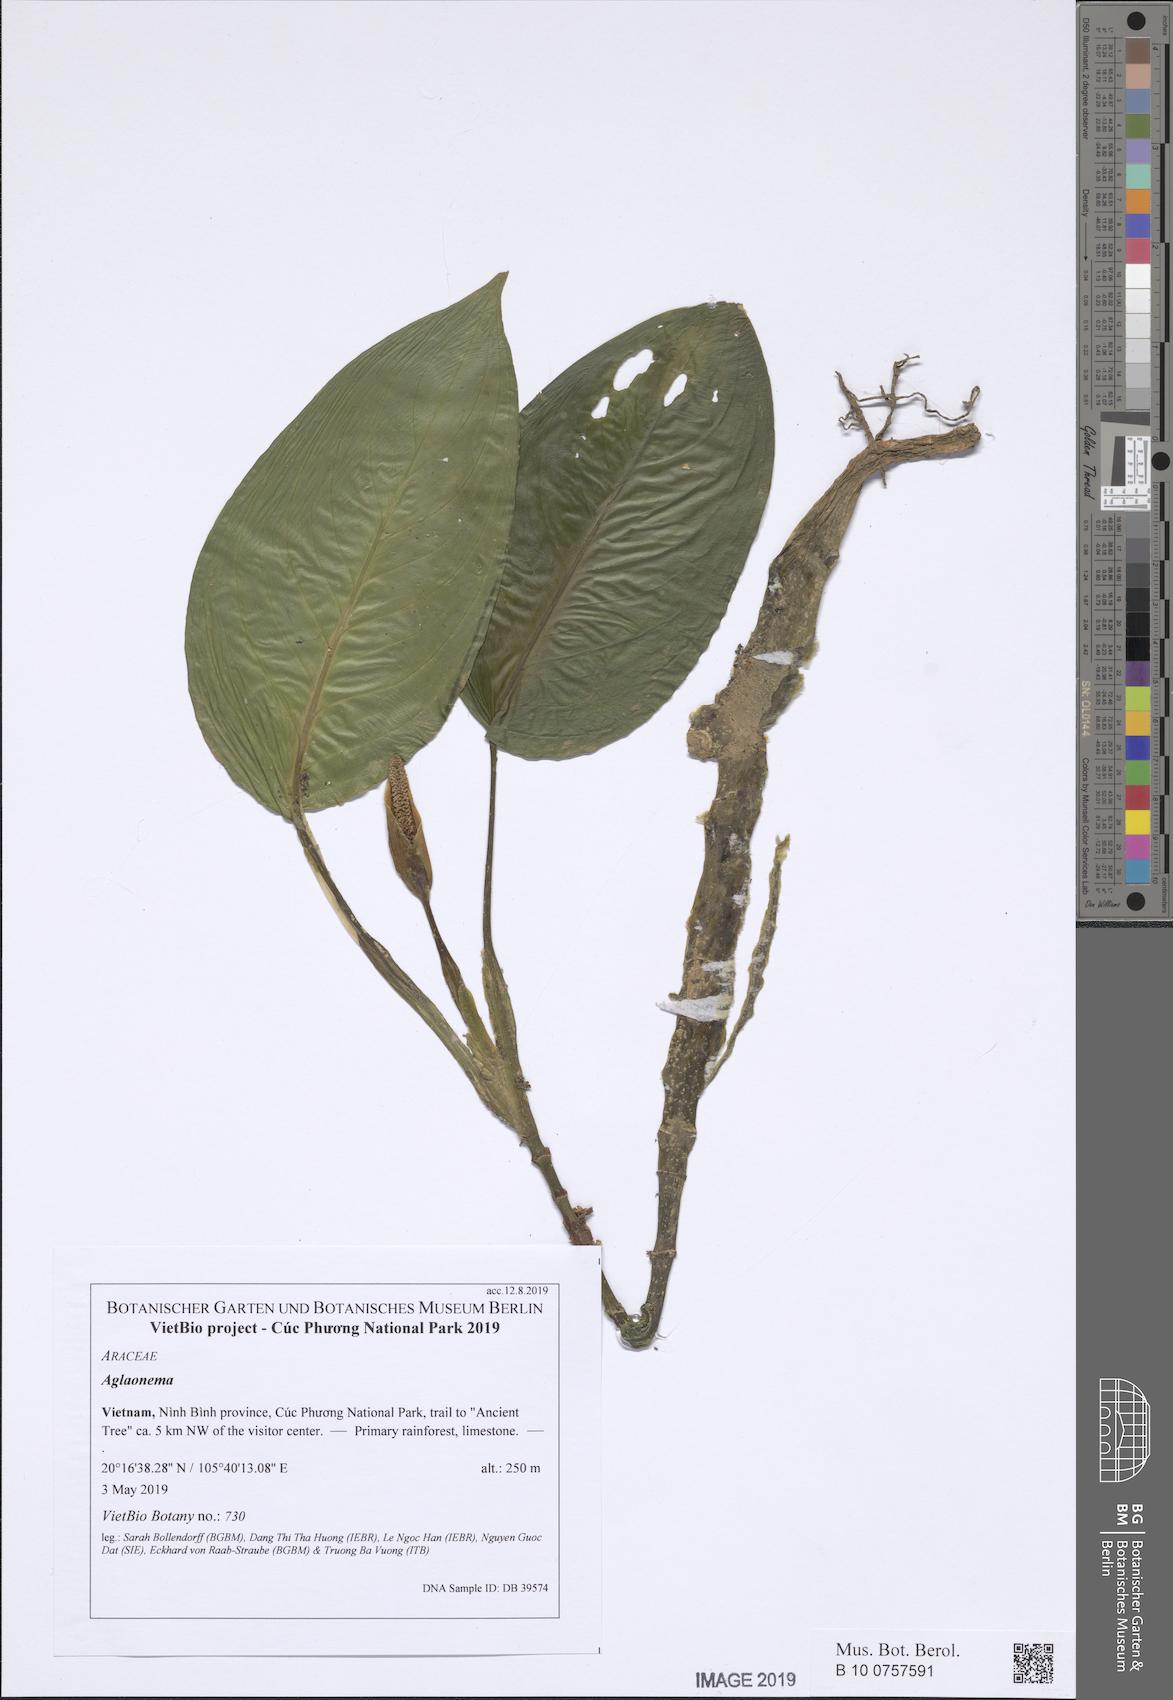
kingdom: Plantae
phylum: Tracheophyta
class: Liliopsida
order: Alismatales
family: Araceae
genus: Aglaonema
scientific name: Aglaonema
